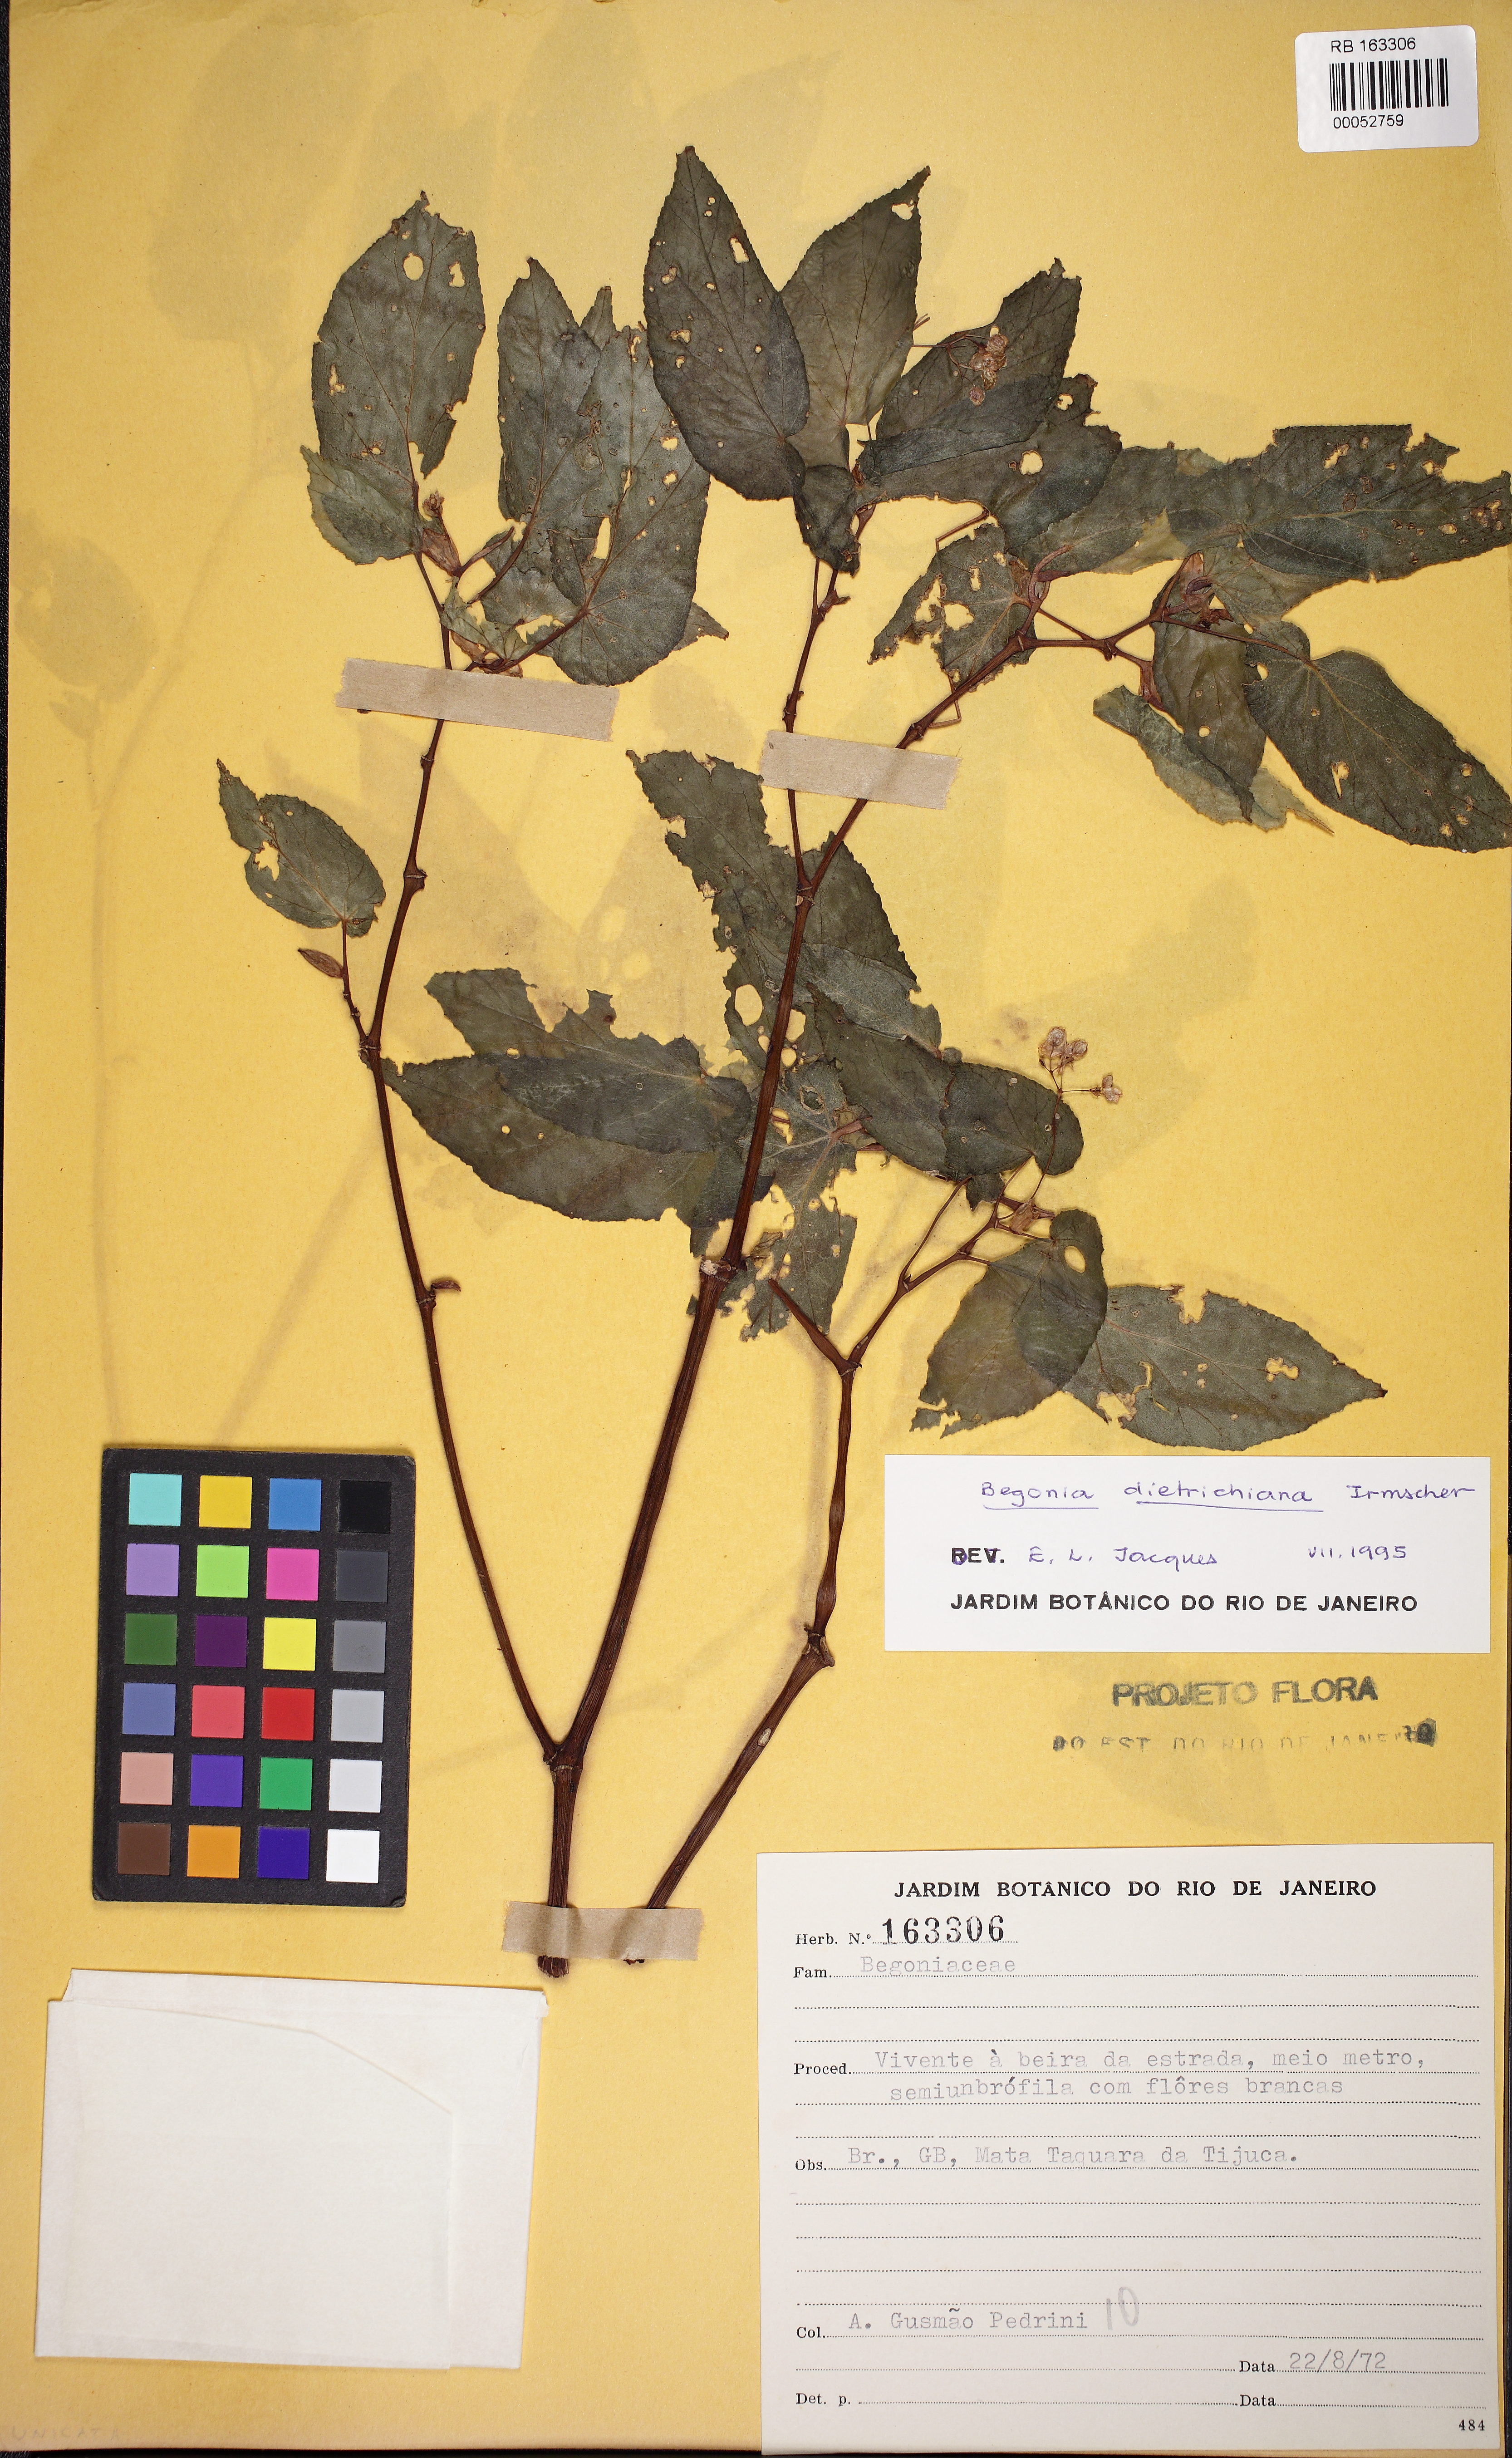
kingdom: Plantae
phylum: Tracheophyta
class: Magnoliopsida
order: Cucurbitales
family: Begoniaceae
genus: Begonia
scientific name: Begonia dietrichiana
